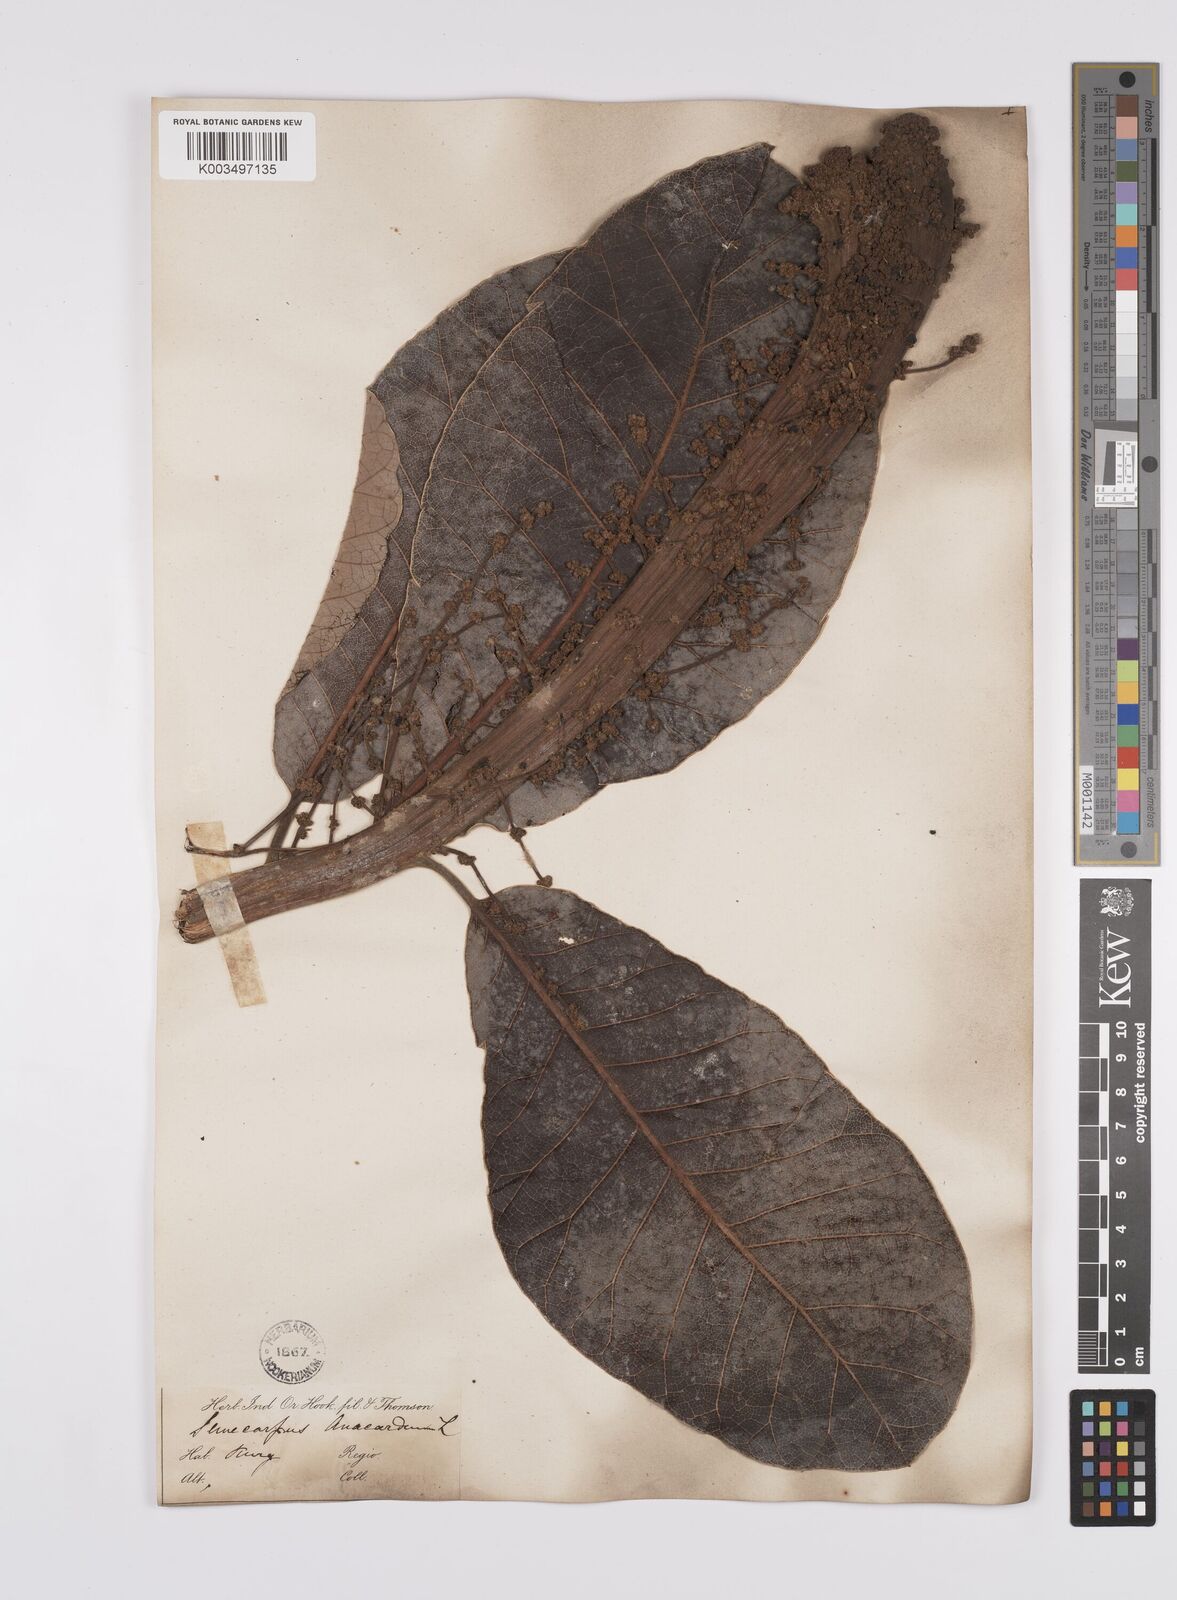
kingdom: Plantae
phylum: Tracheophyta
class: Magnoliopsida
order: Sapindales
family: Anacardiaceae
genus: Semecarpus
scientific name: Semecarpus anacardium
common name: Marking nut-tree
